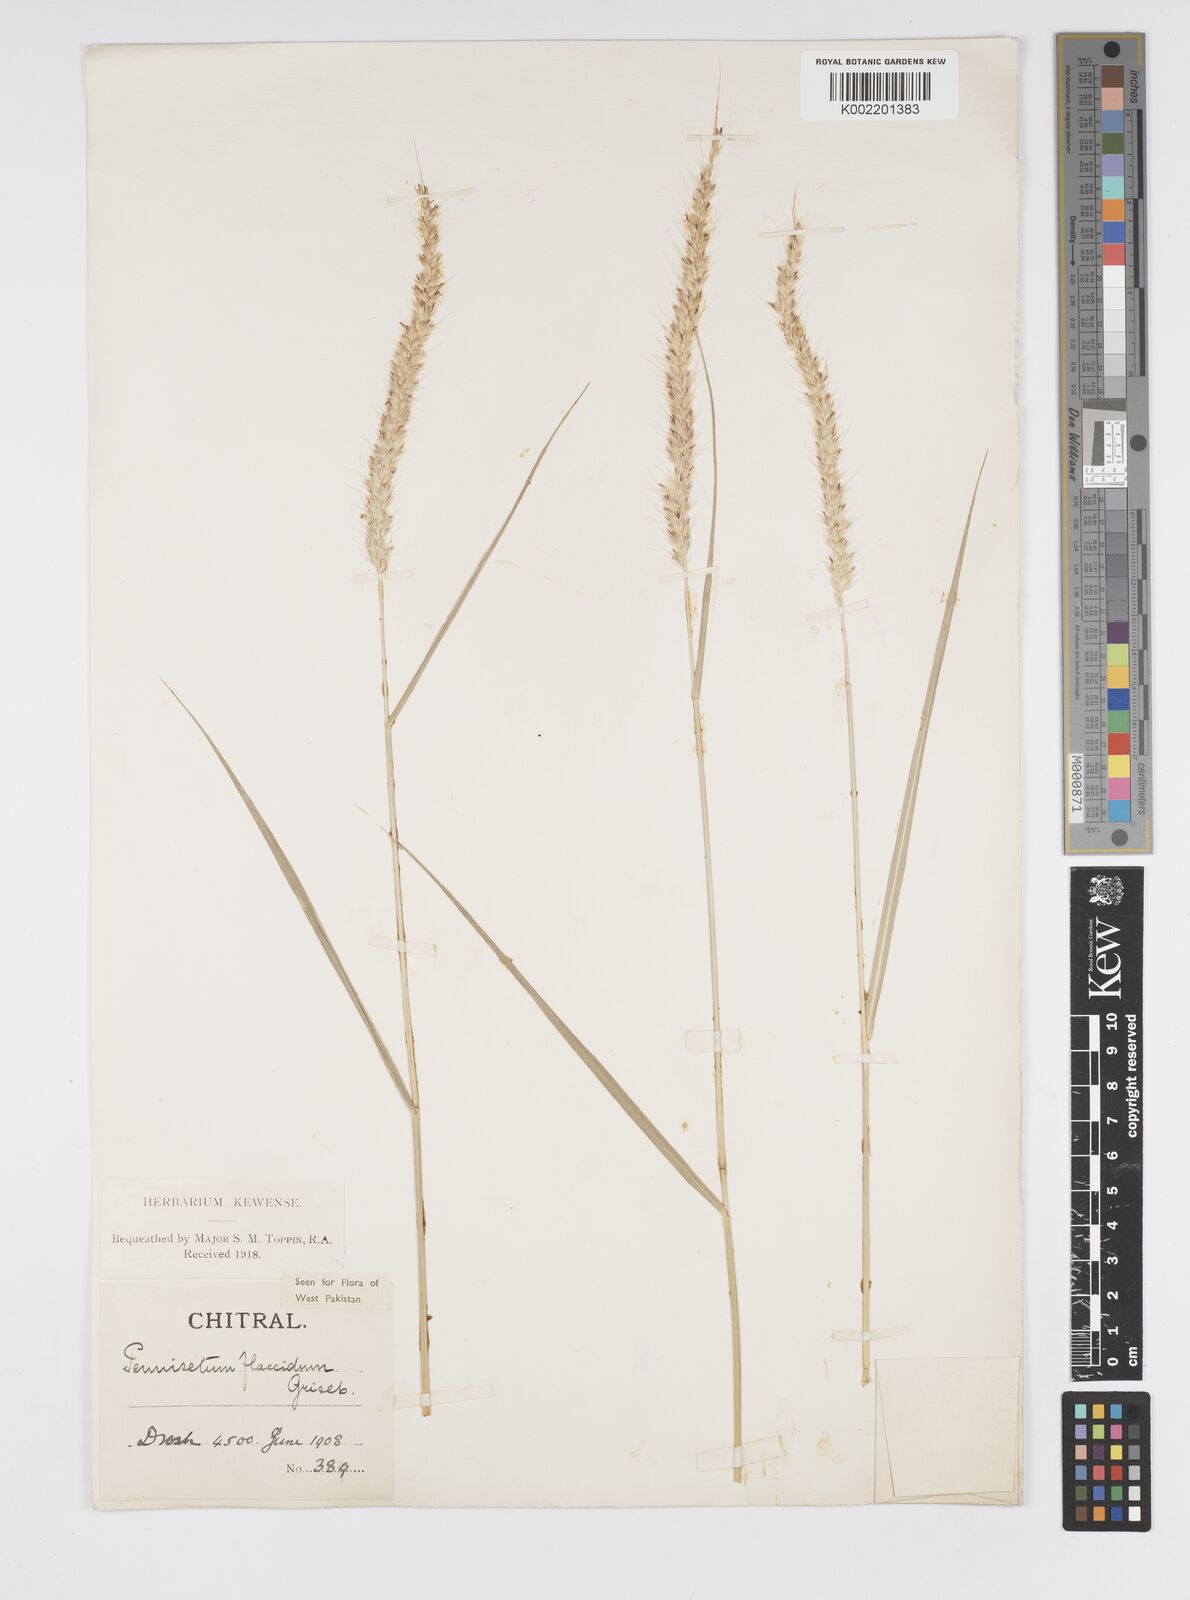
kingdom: Plantae
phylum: Tracheophyta
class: Liliopsida
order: Poales
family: Poaceae
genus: Cenchrus
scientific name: Cenchrus flaccidus
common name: Flaccid grass
